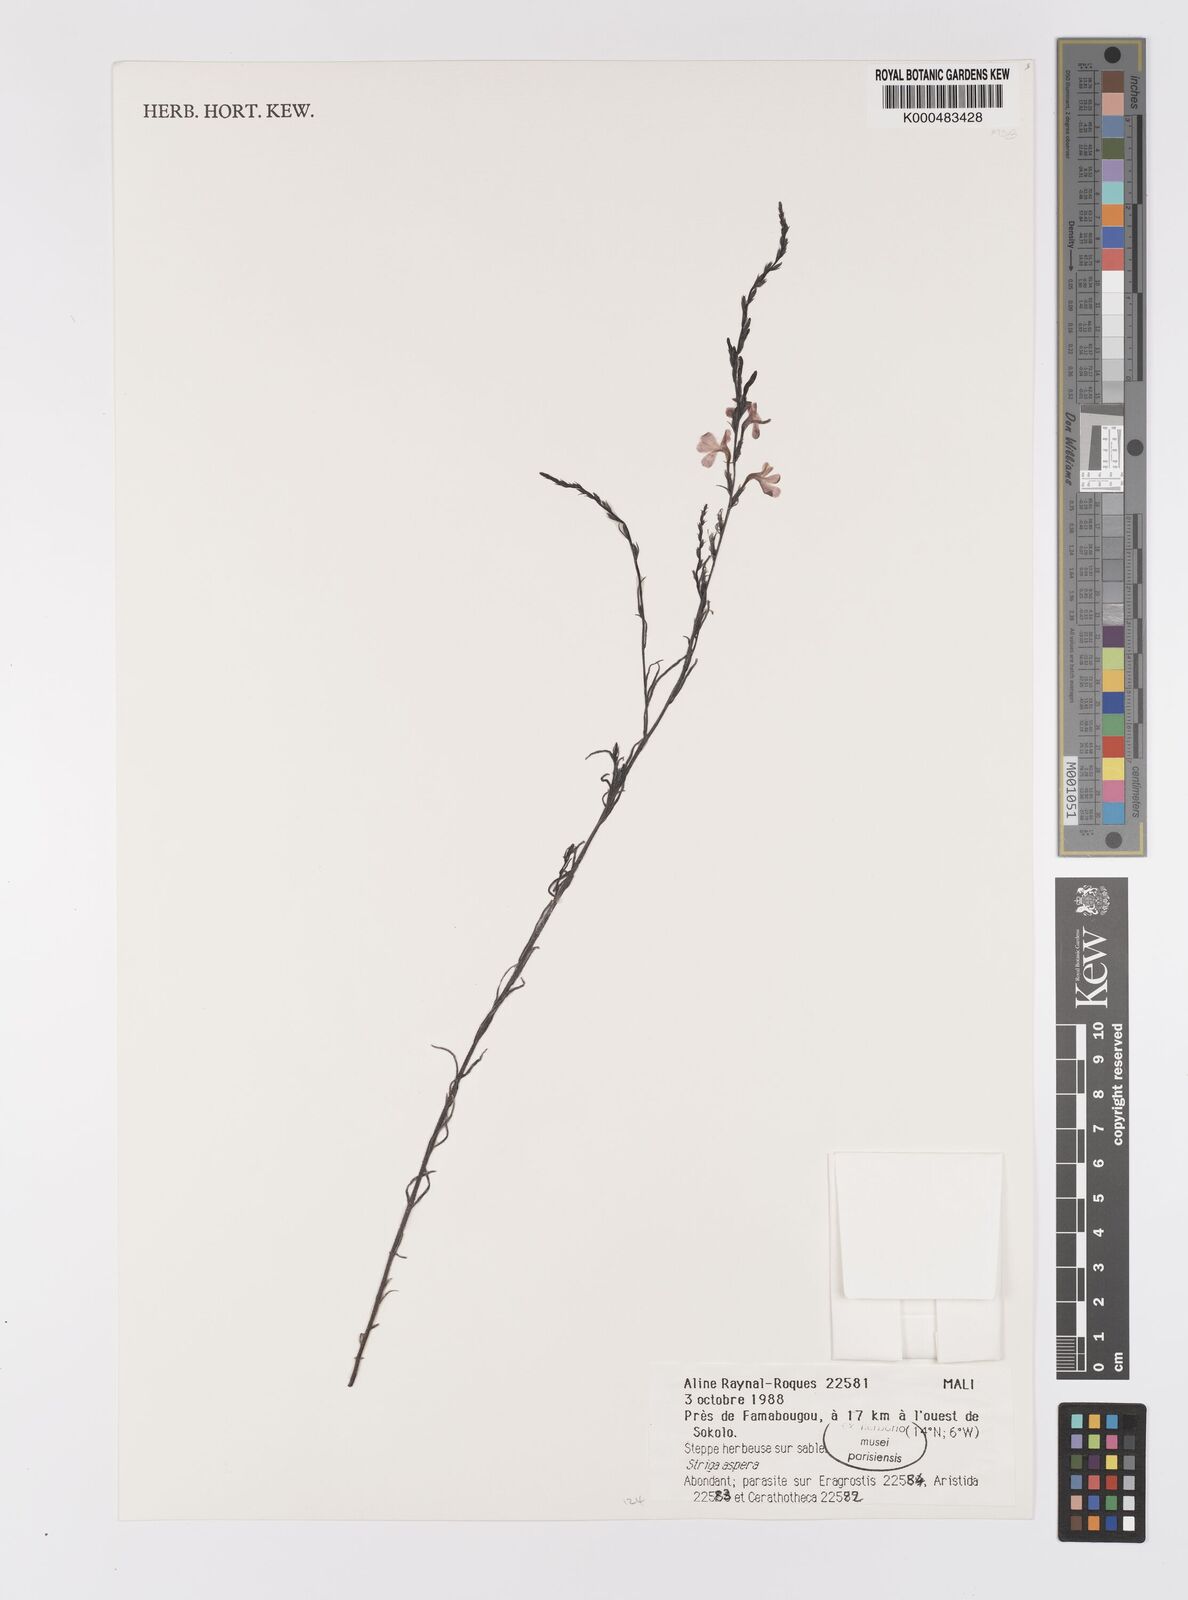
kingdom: Plantae
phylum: Tracheophyta
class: Magnoliopsida
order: Lamiales
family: Orobanchaceae
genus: Striga
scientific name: Striga aspera
